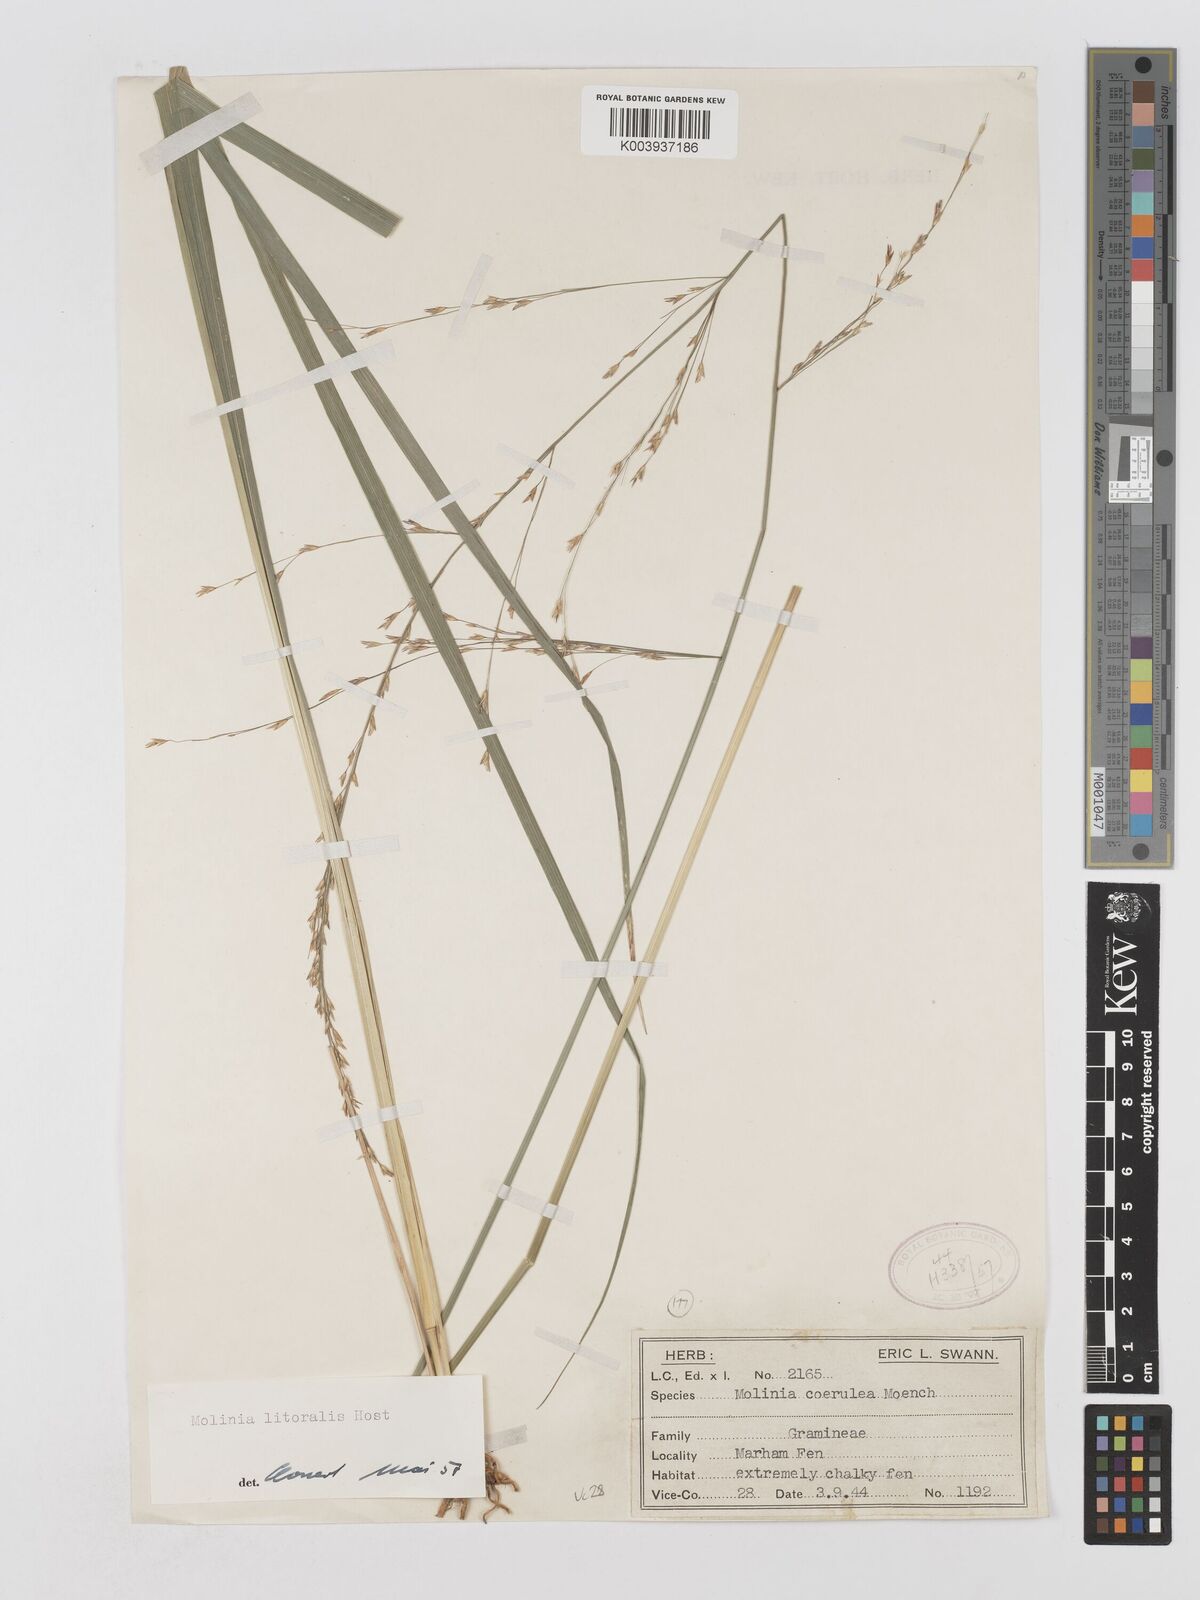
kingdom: Plantae
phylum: Tracheophyta
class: Liliopsida
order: Poales
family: Poaceae
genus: Molinia
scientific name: Molinia caerulea
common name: Purple moor-grass
